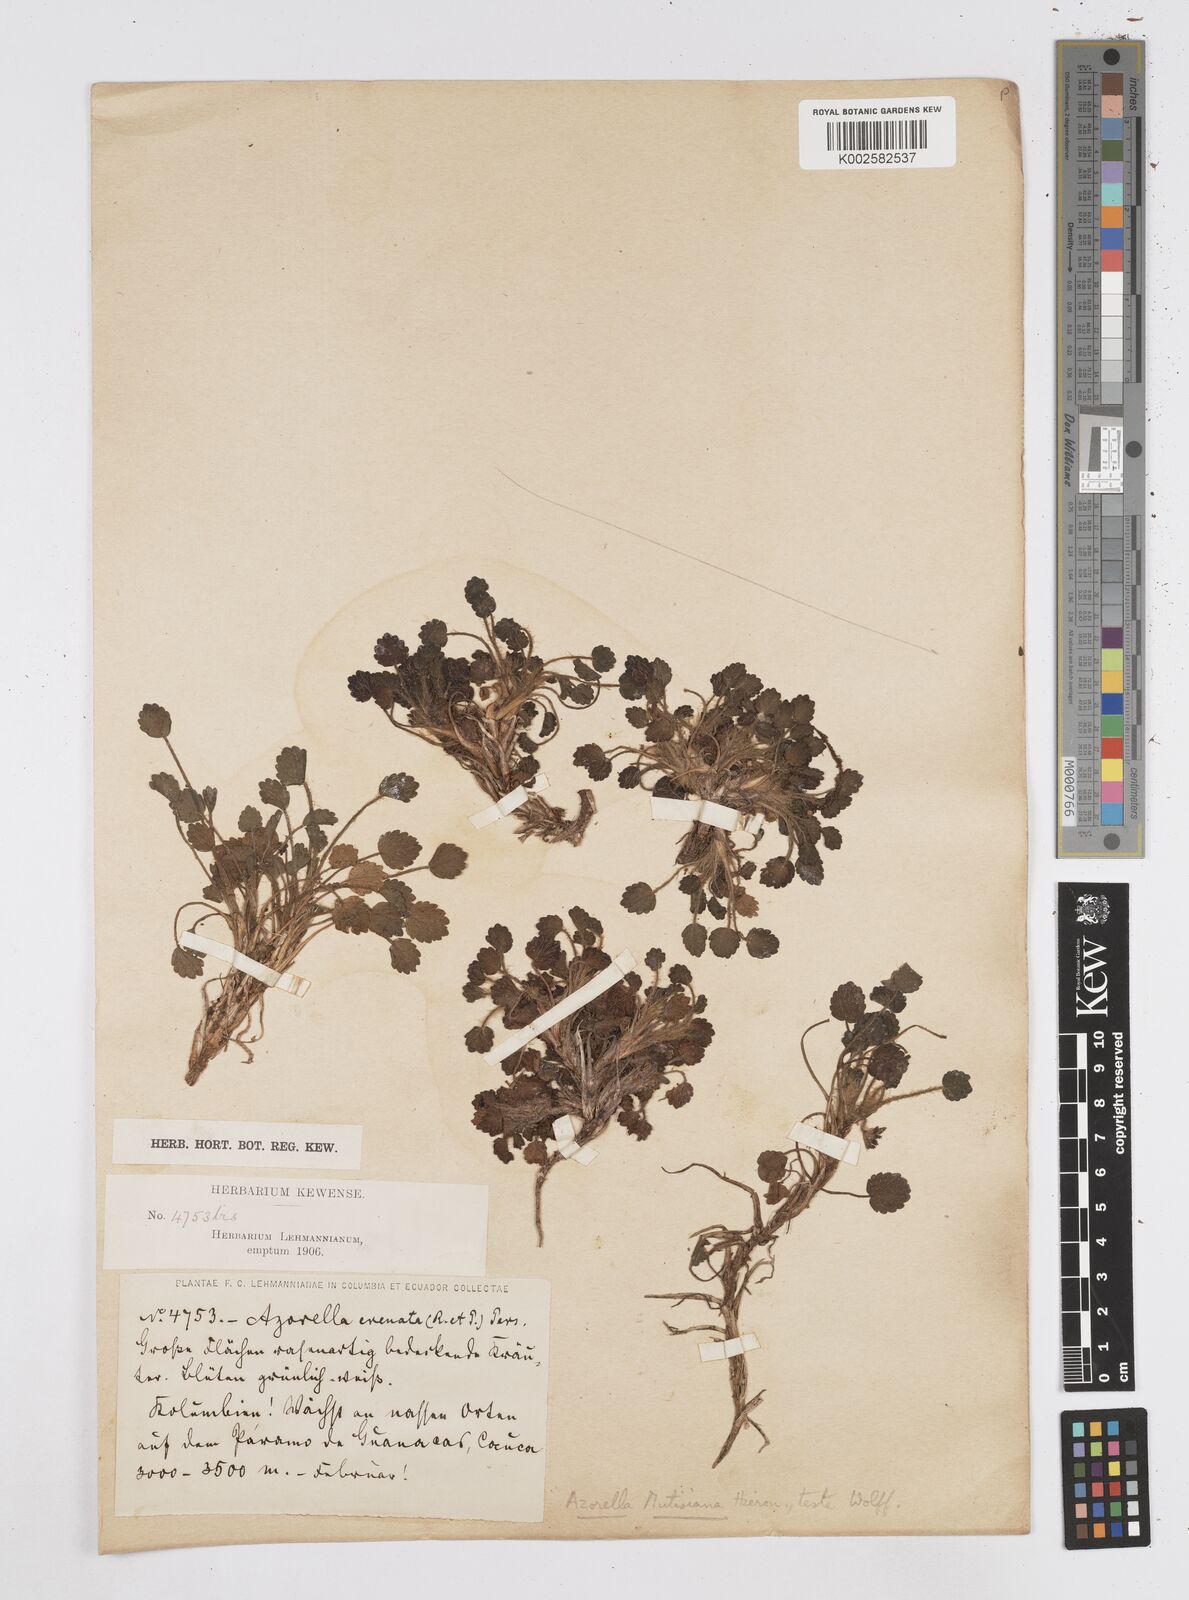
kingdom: Plantae
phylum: Tracheophyta
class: Magnoliopsida
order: Apiales
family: Apiaceae
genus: Azorella
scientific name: Azorella crenata
